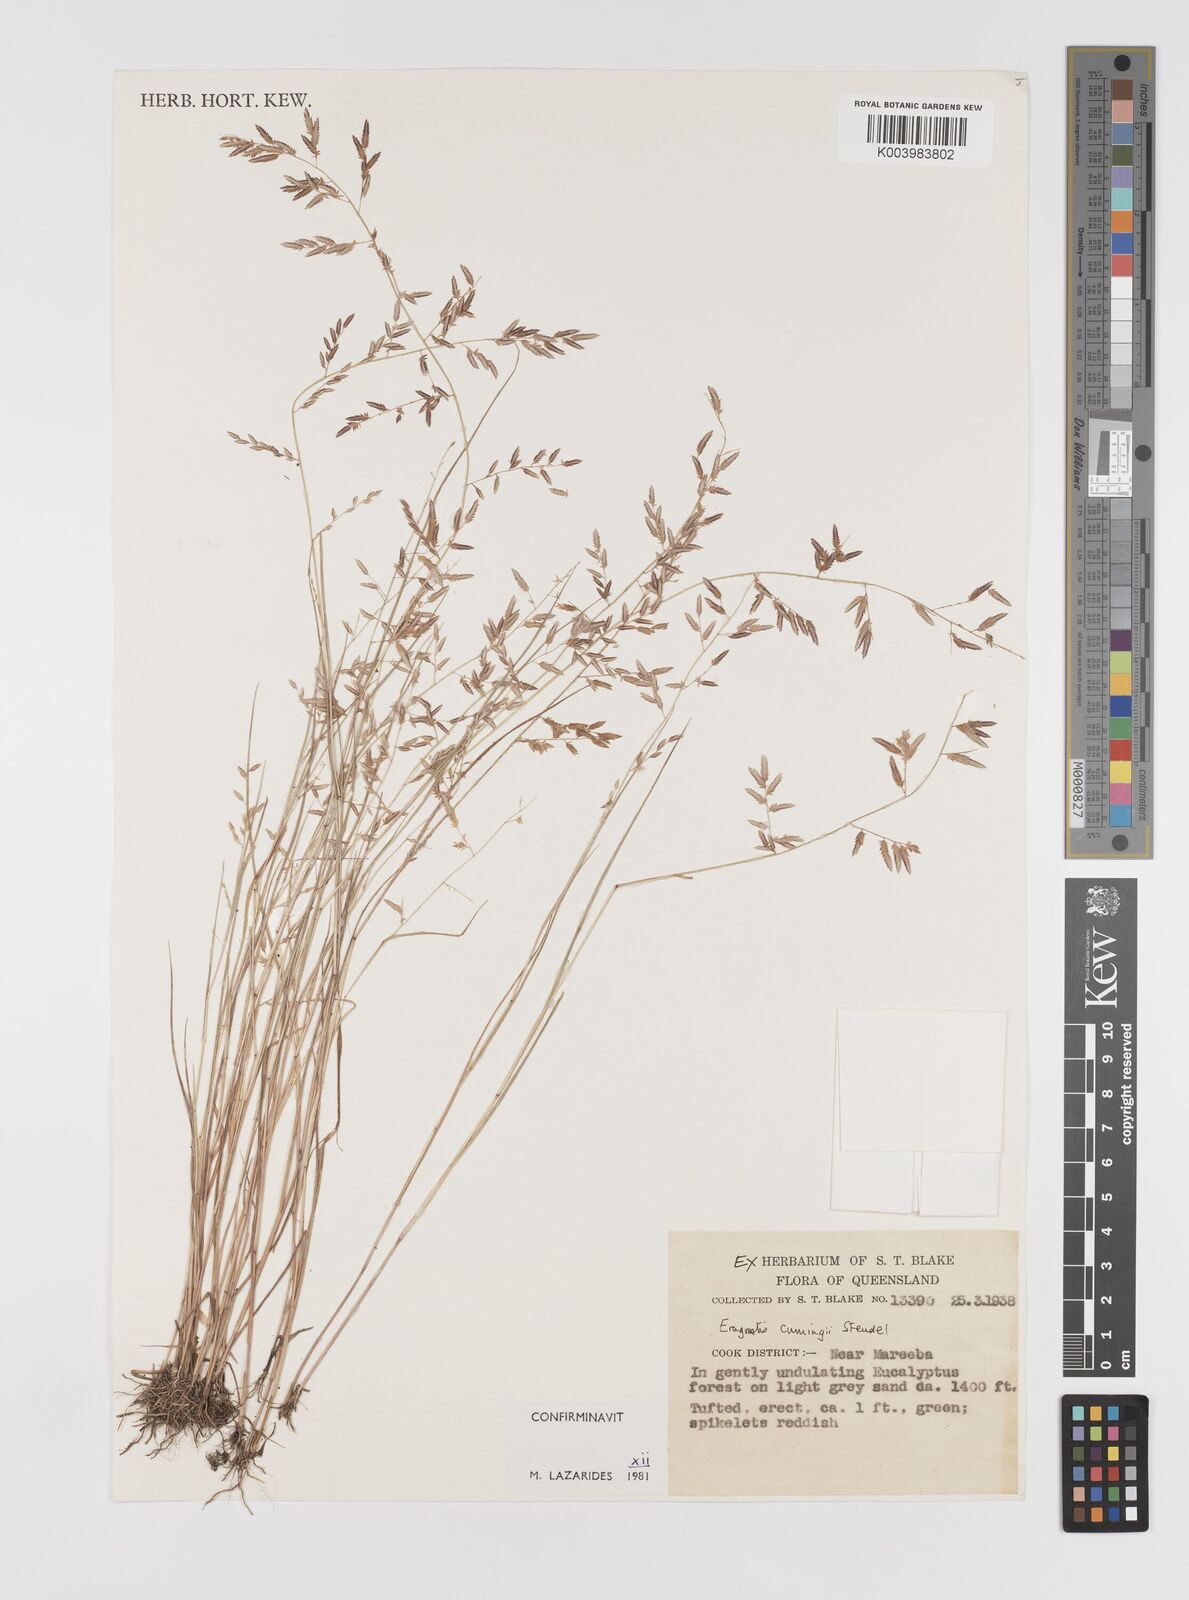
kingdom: Plantae
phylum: Tracheophyta
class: Liliopsida
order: Poales
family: Poaceae
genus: Eragrostis
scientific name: Eragrostis cumingii
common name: Cuming's lovegrass
